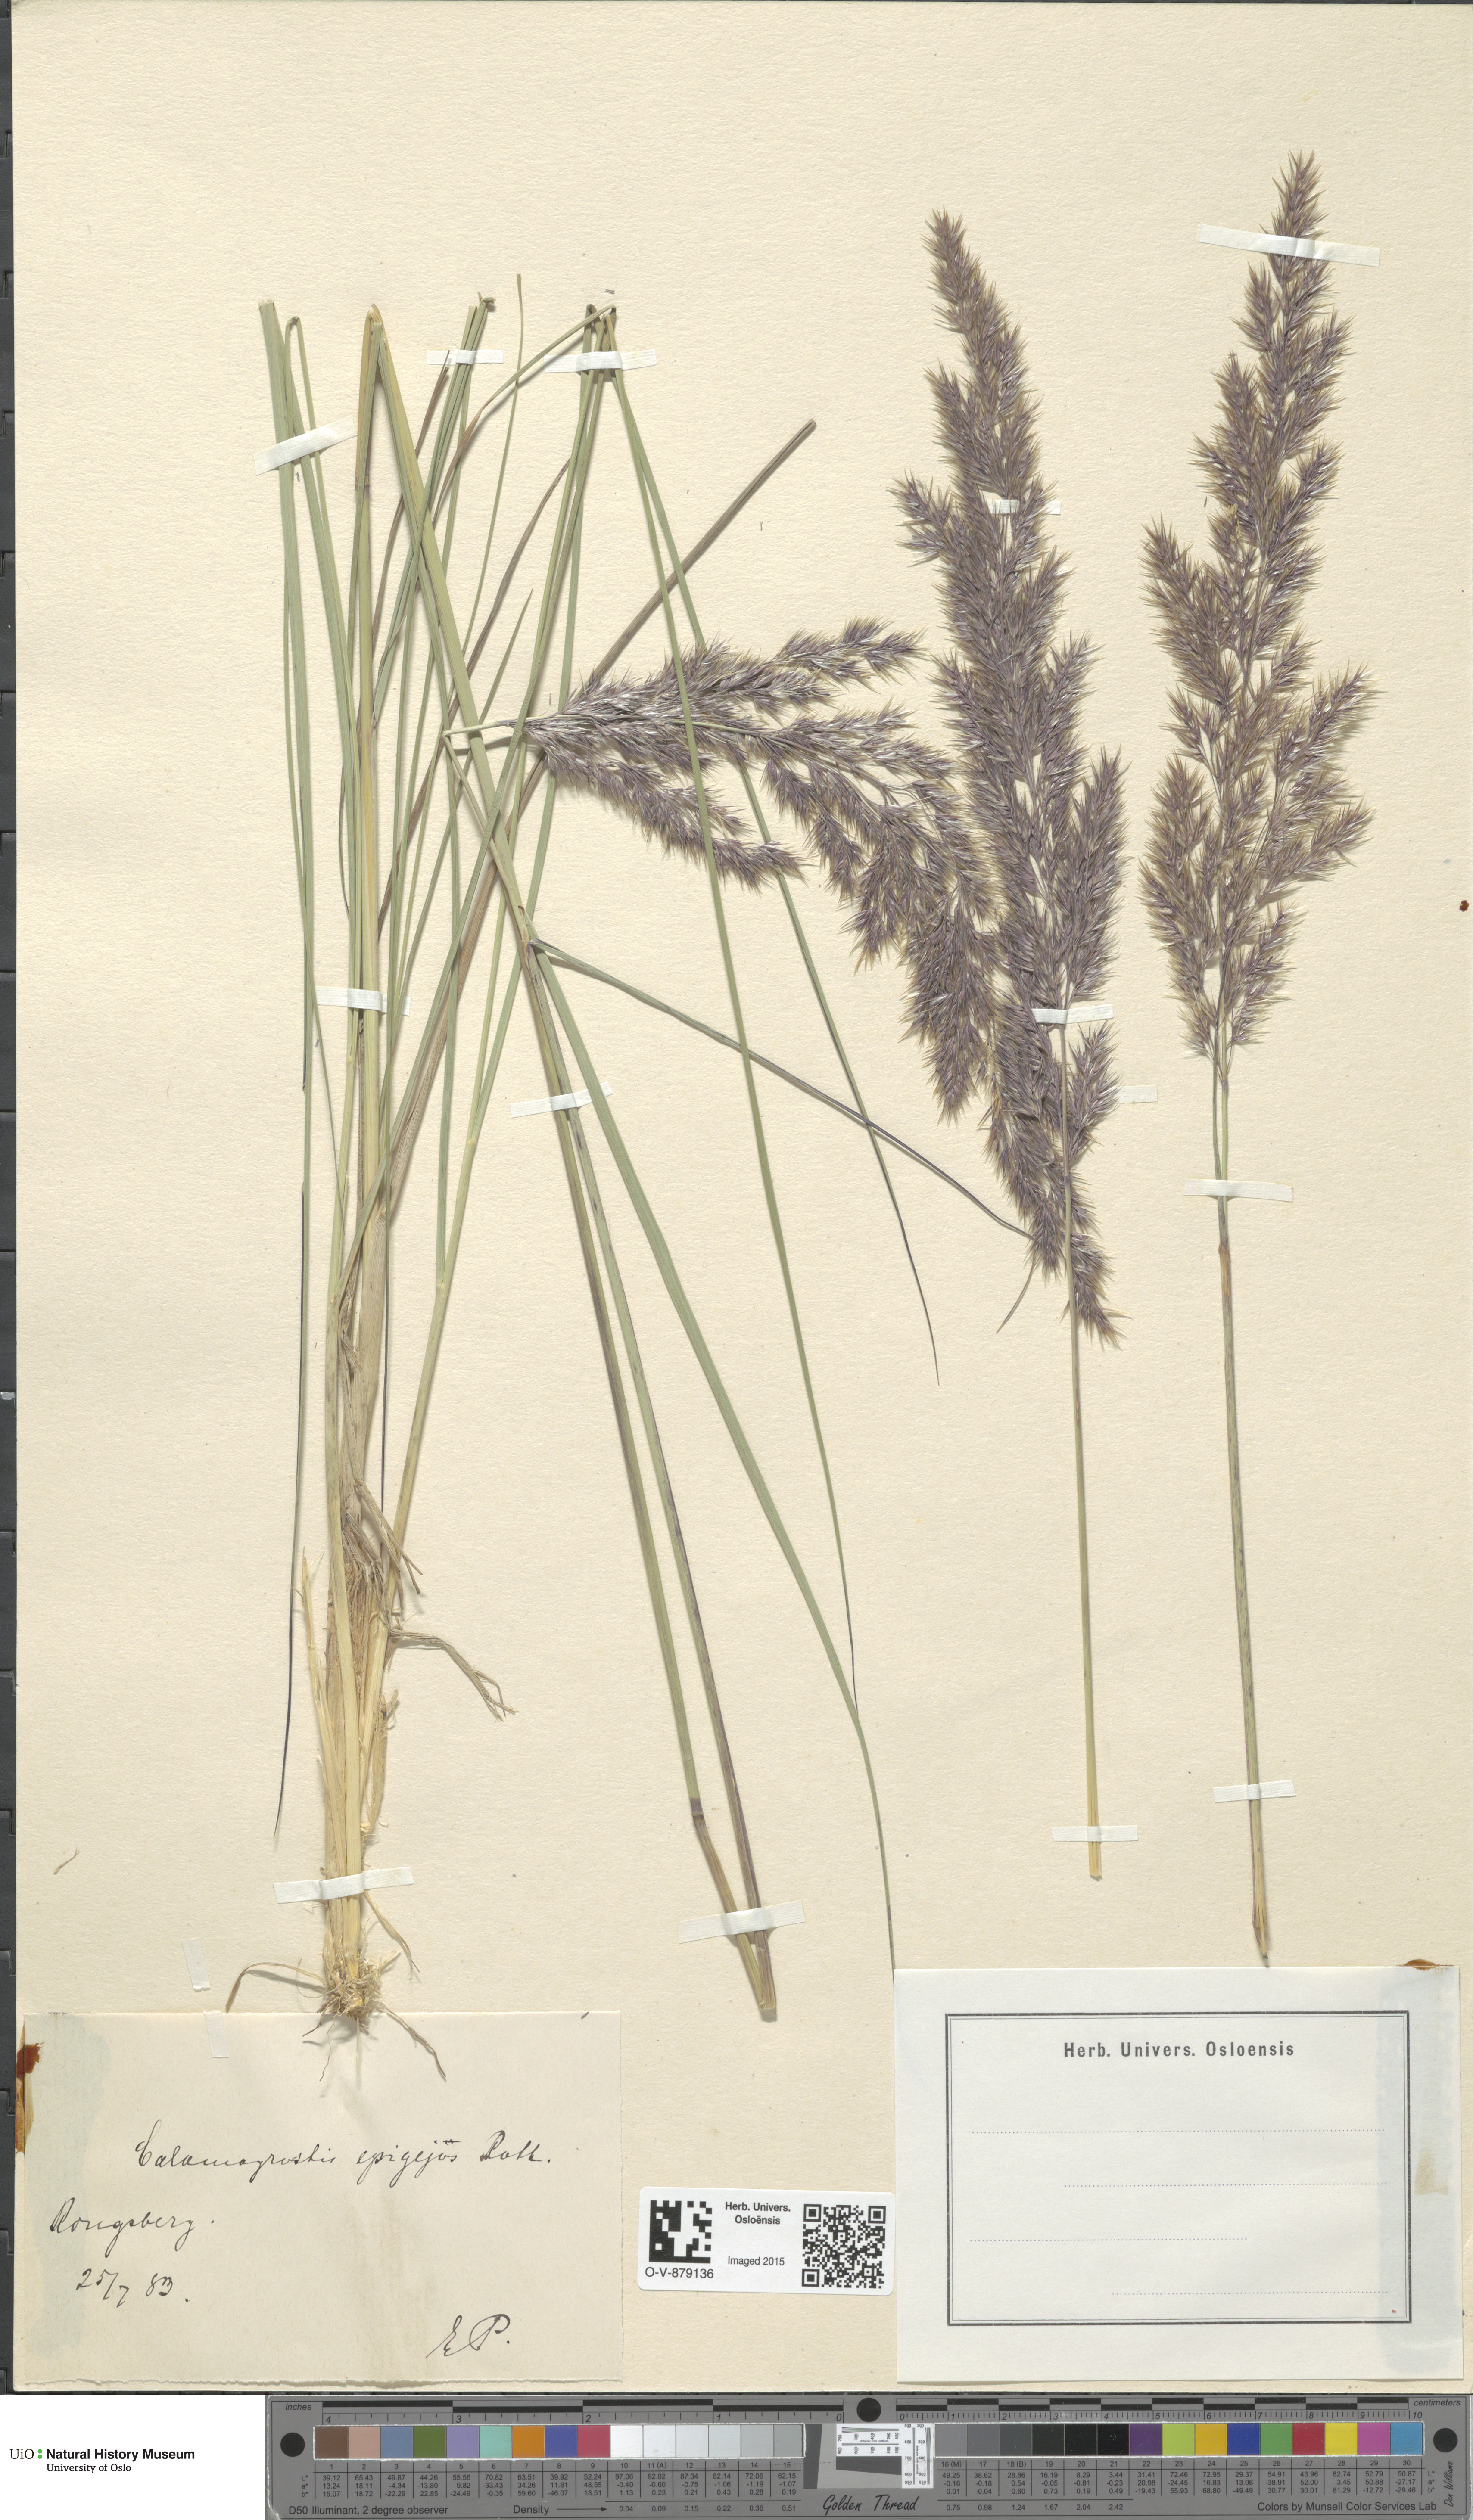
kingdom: Plantae
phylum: Tracheophyta
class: Liliopsida
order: Poales
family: Poaceae
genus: Calamagrostis
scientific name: Calamagrostis epigejos
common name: Wood small-reed
